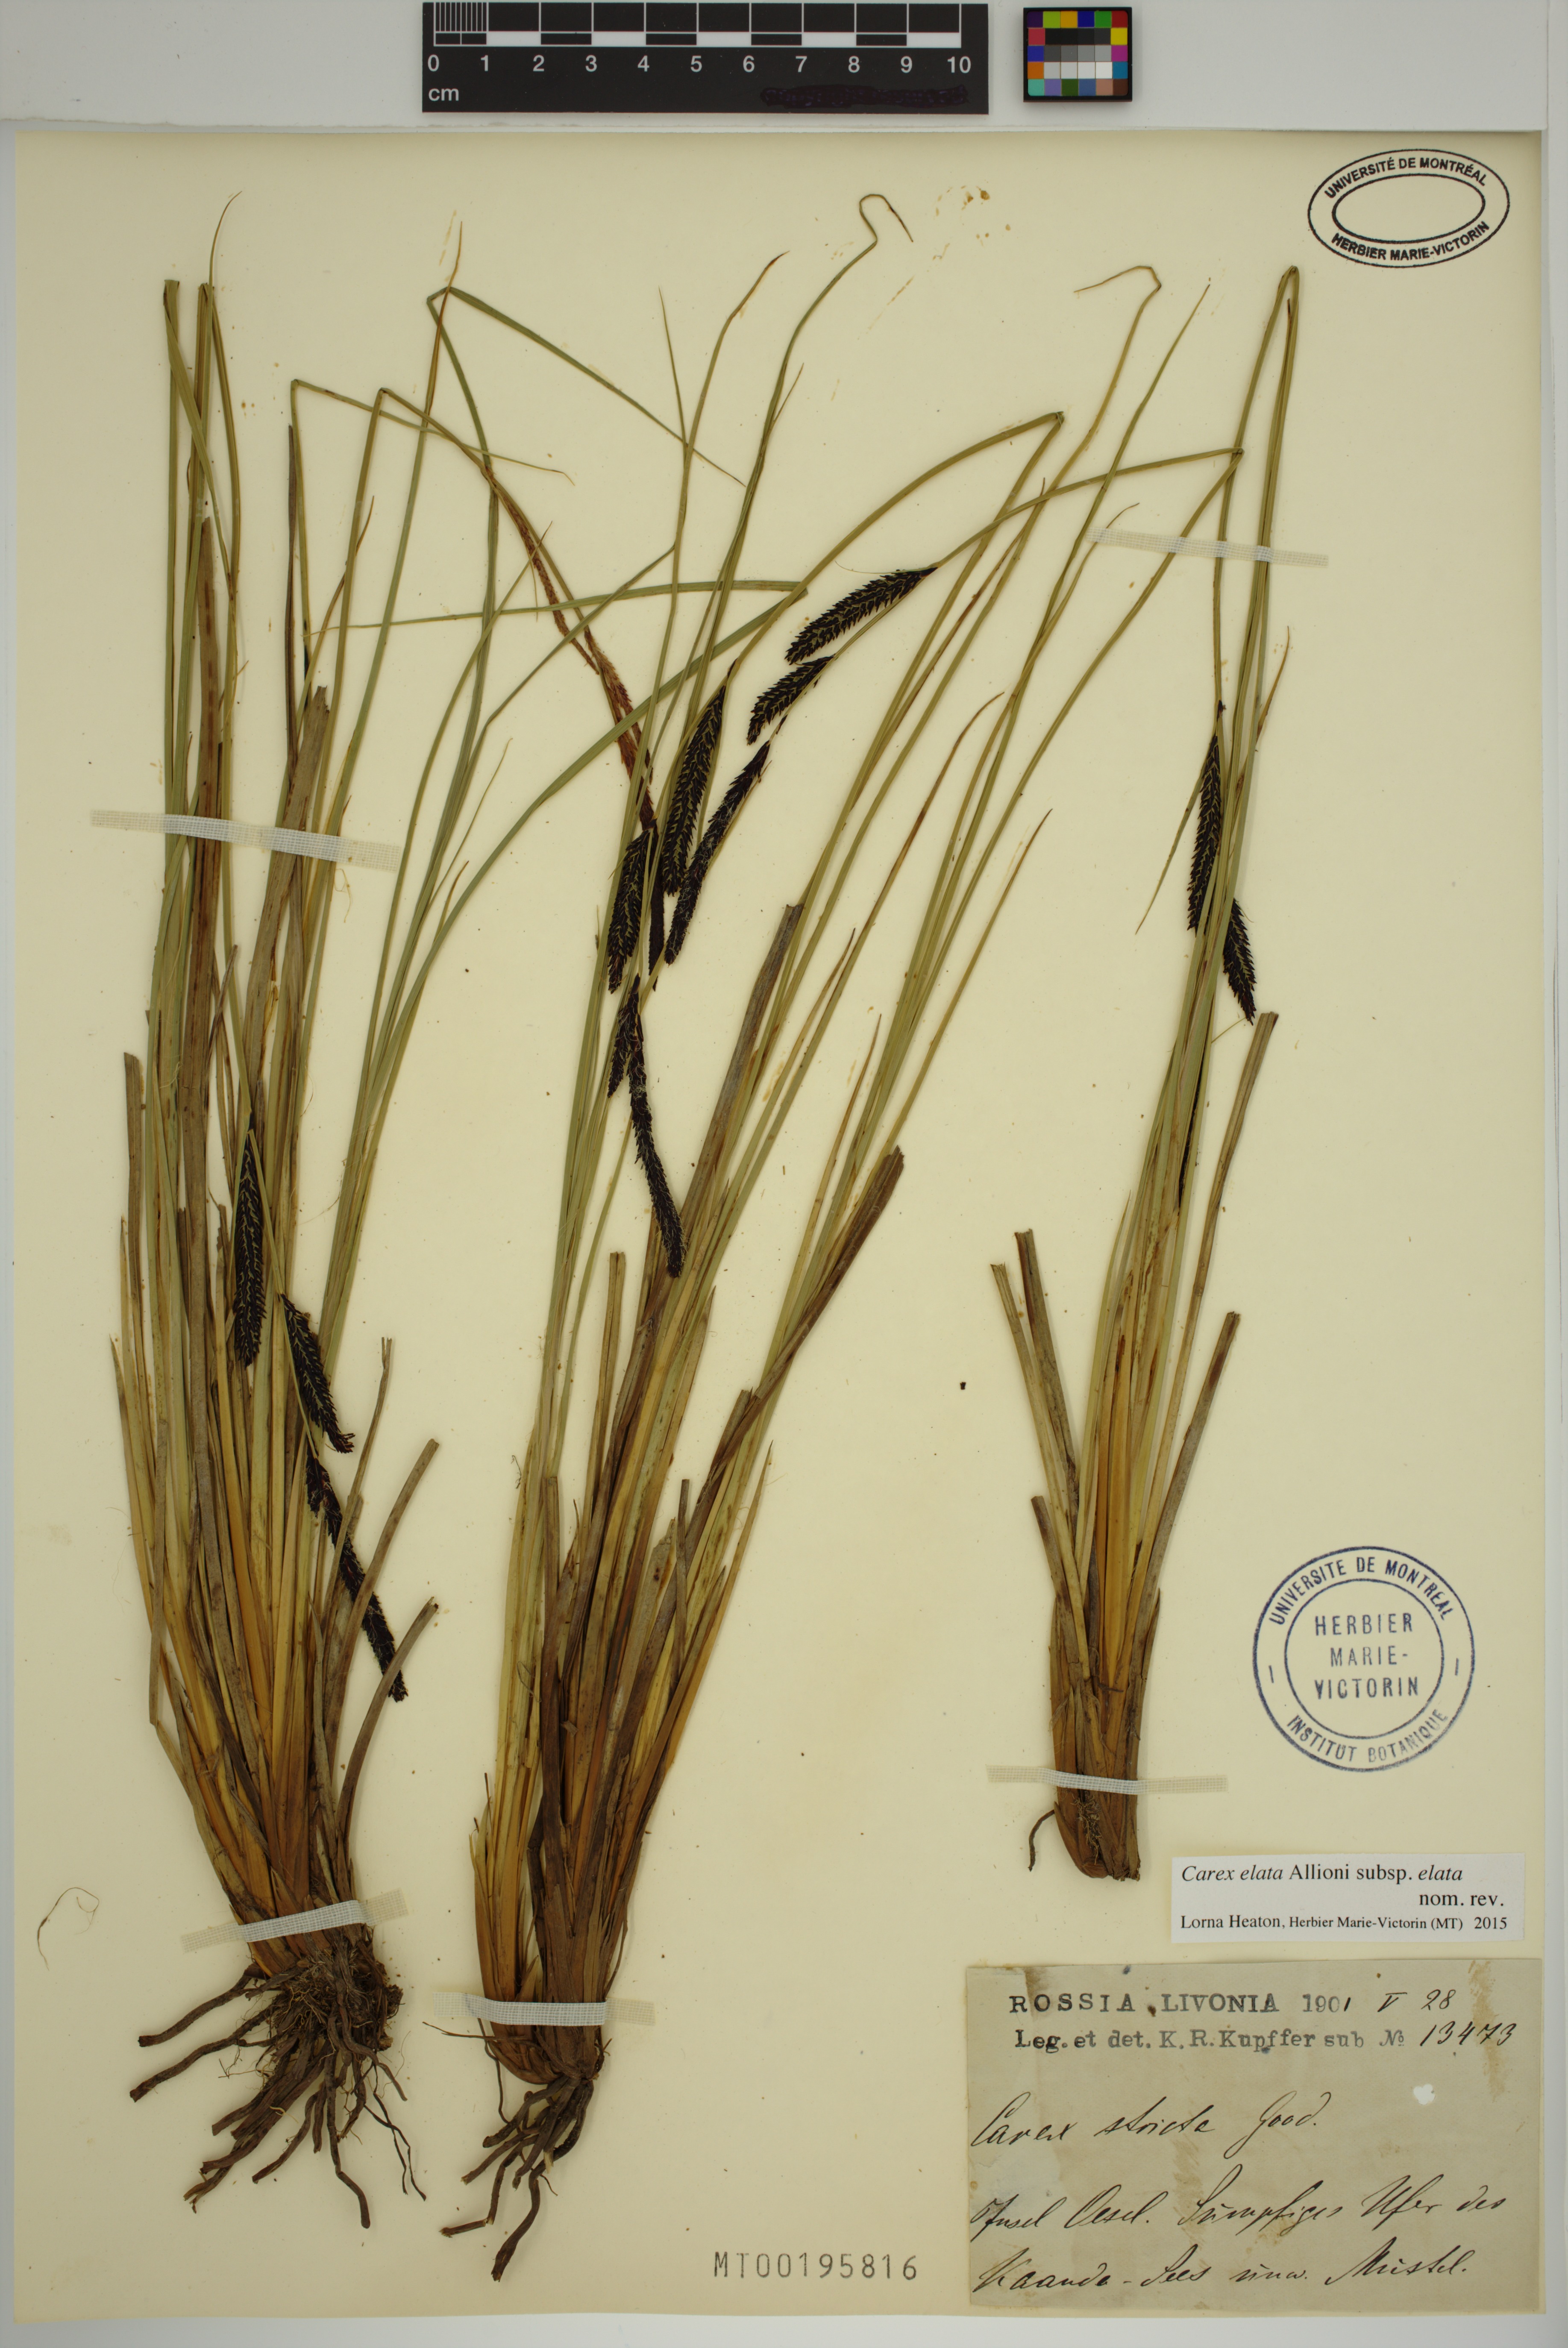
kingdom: Plantae
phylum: Tracheophyta
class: Liliopsida
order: Poales
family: Cyperaceae
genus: Carex
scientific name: Carex elata
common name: Tufted sedge
